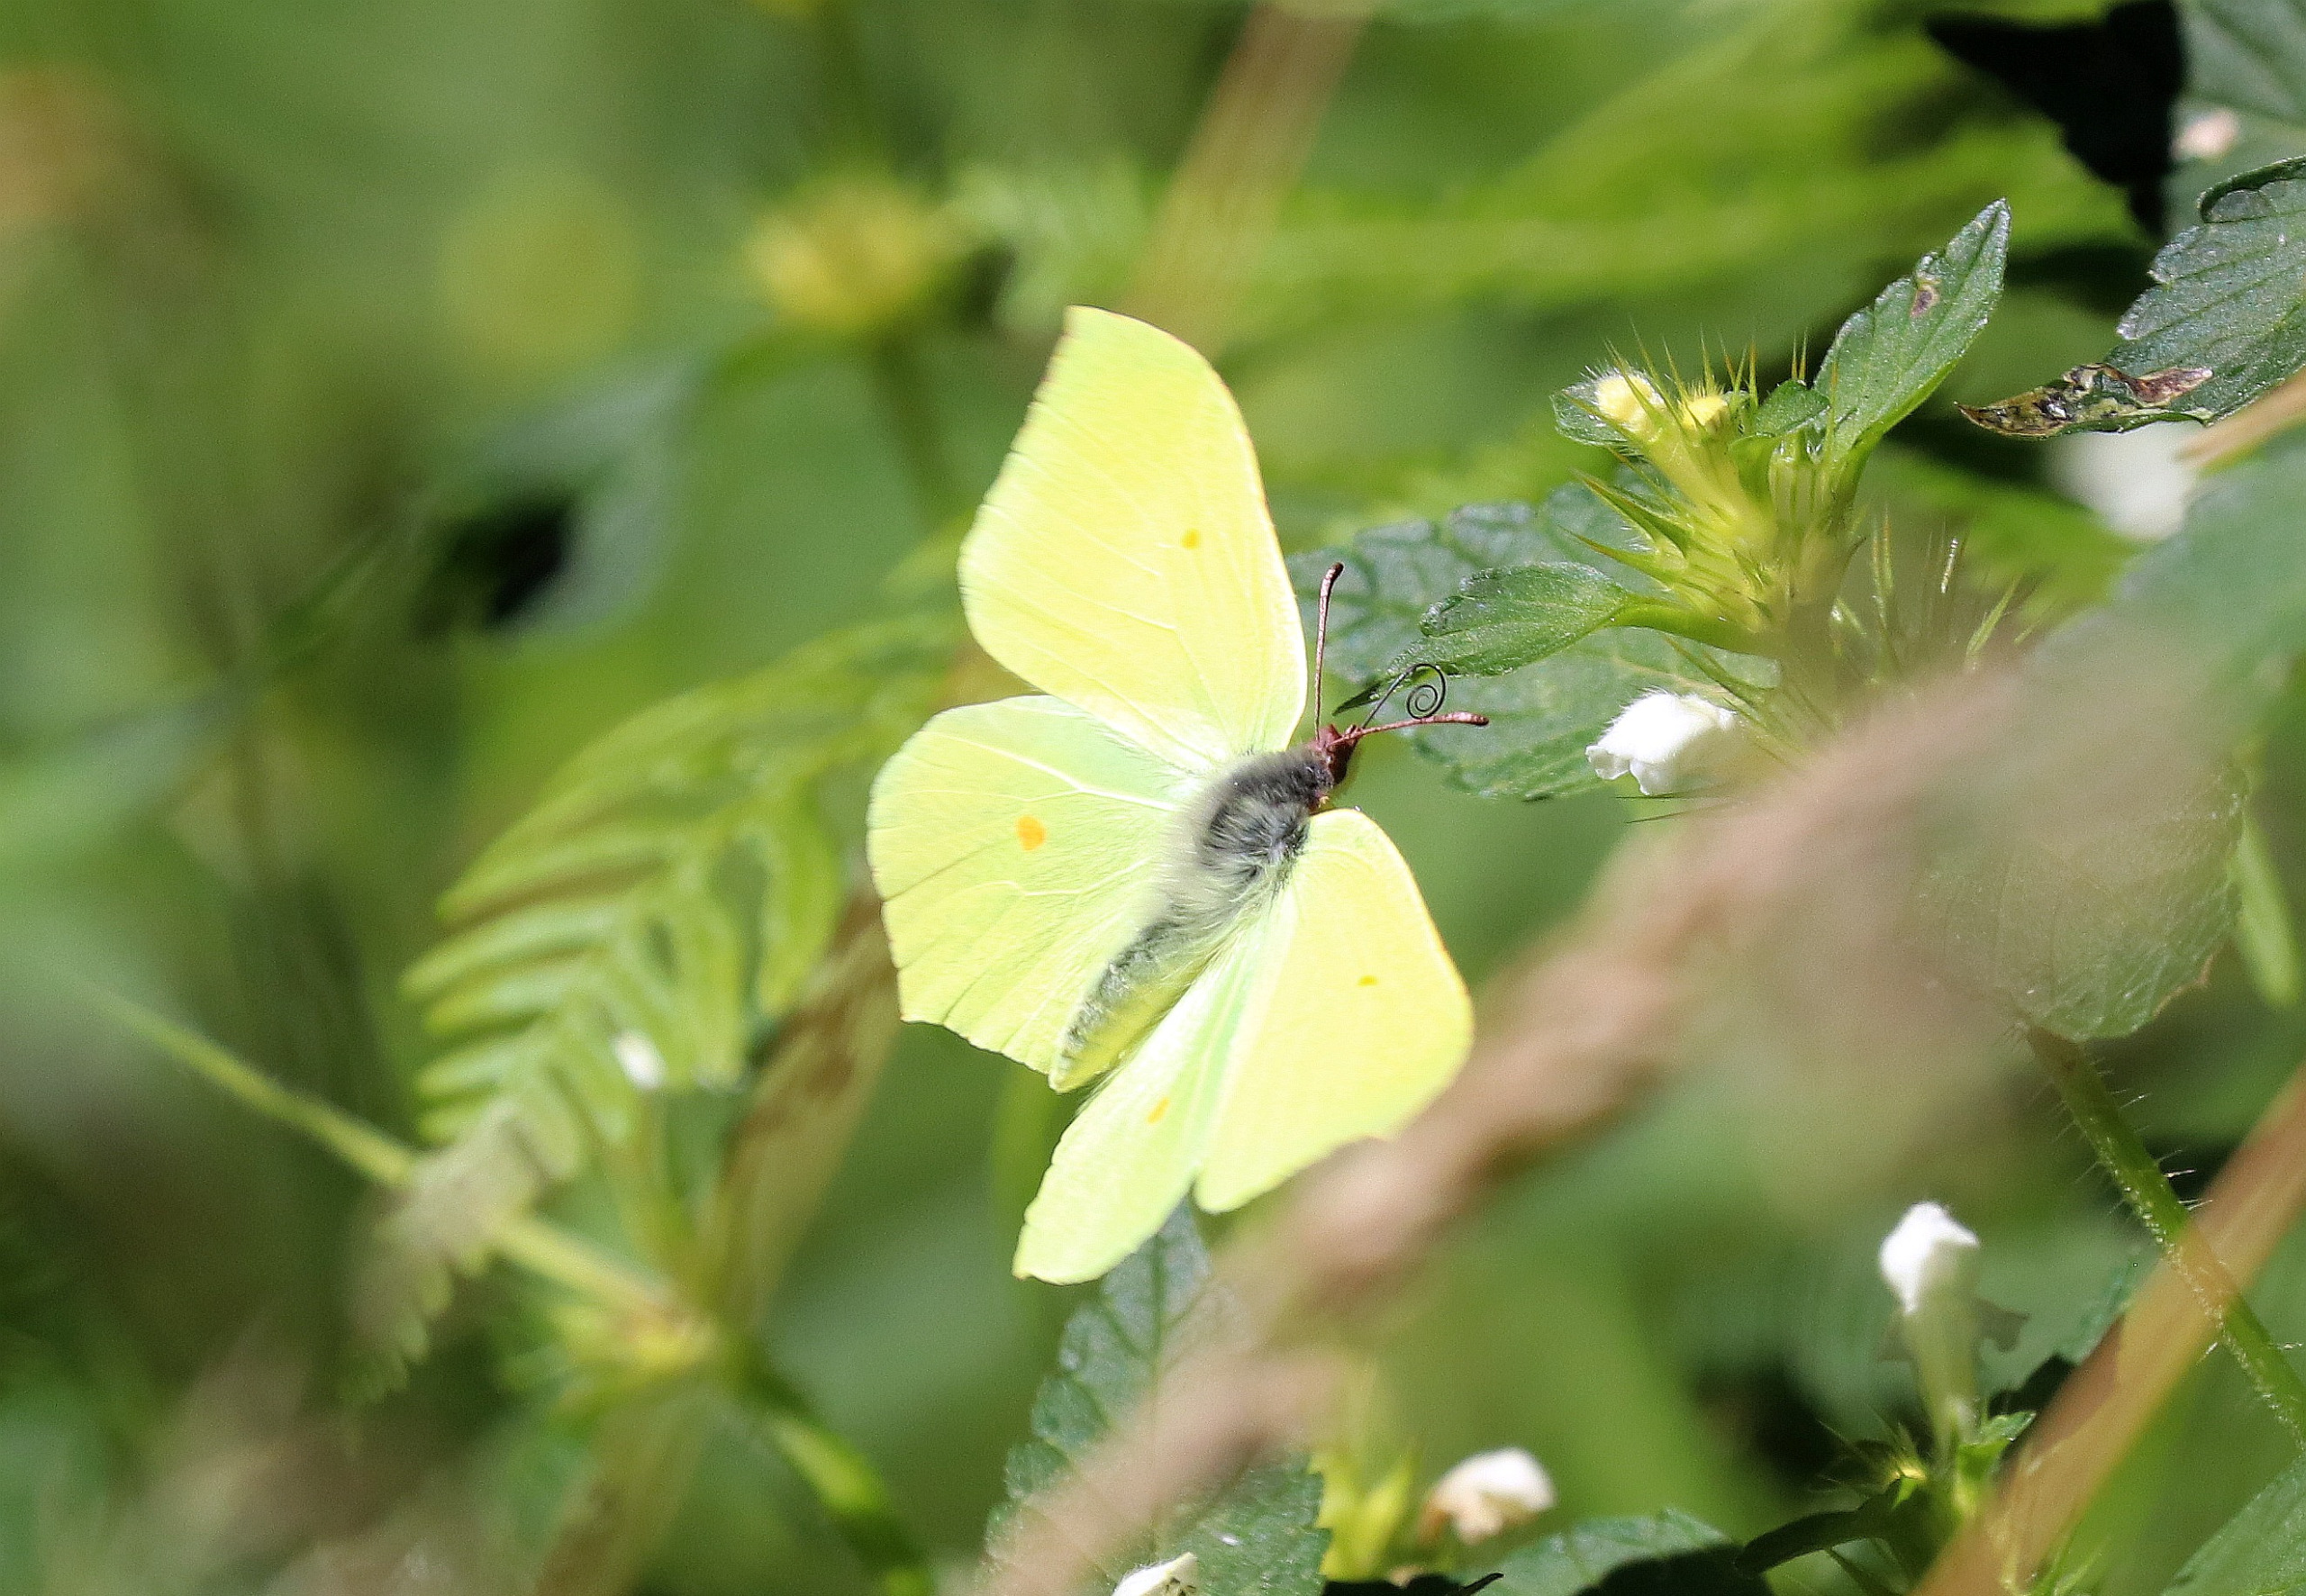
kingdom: Animalia
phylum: Arthropoda
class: Insecta
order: Lepidoptera
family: Pieridae
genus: Gonepteryx
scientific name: Gonepteryx rhamni
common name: Citronsommerfugl
